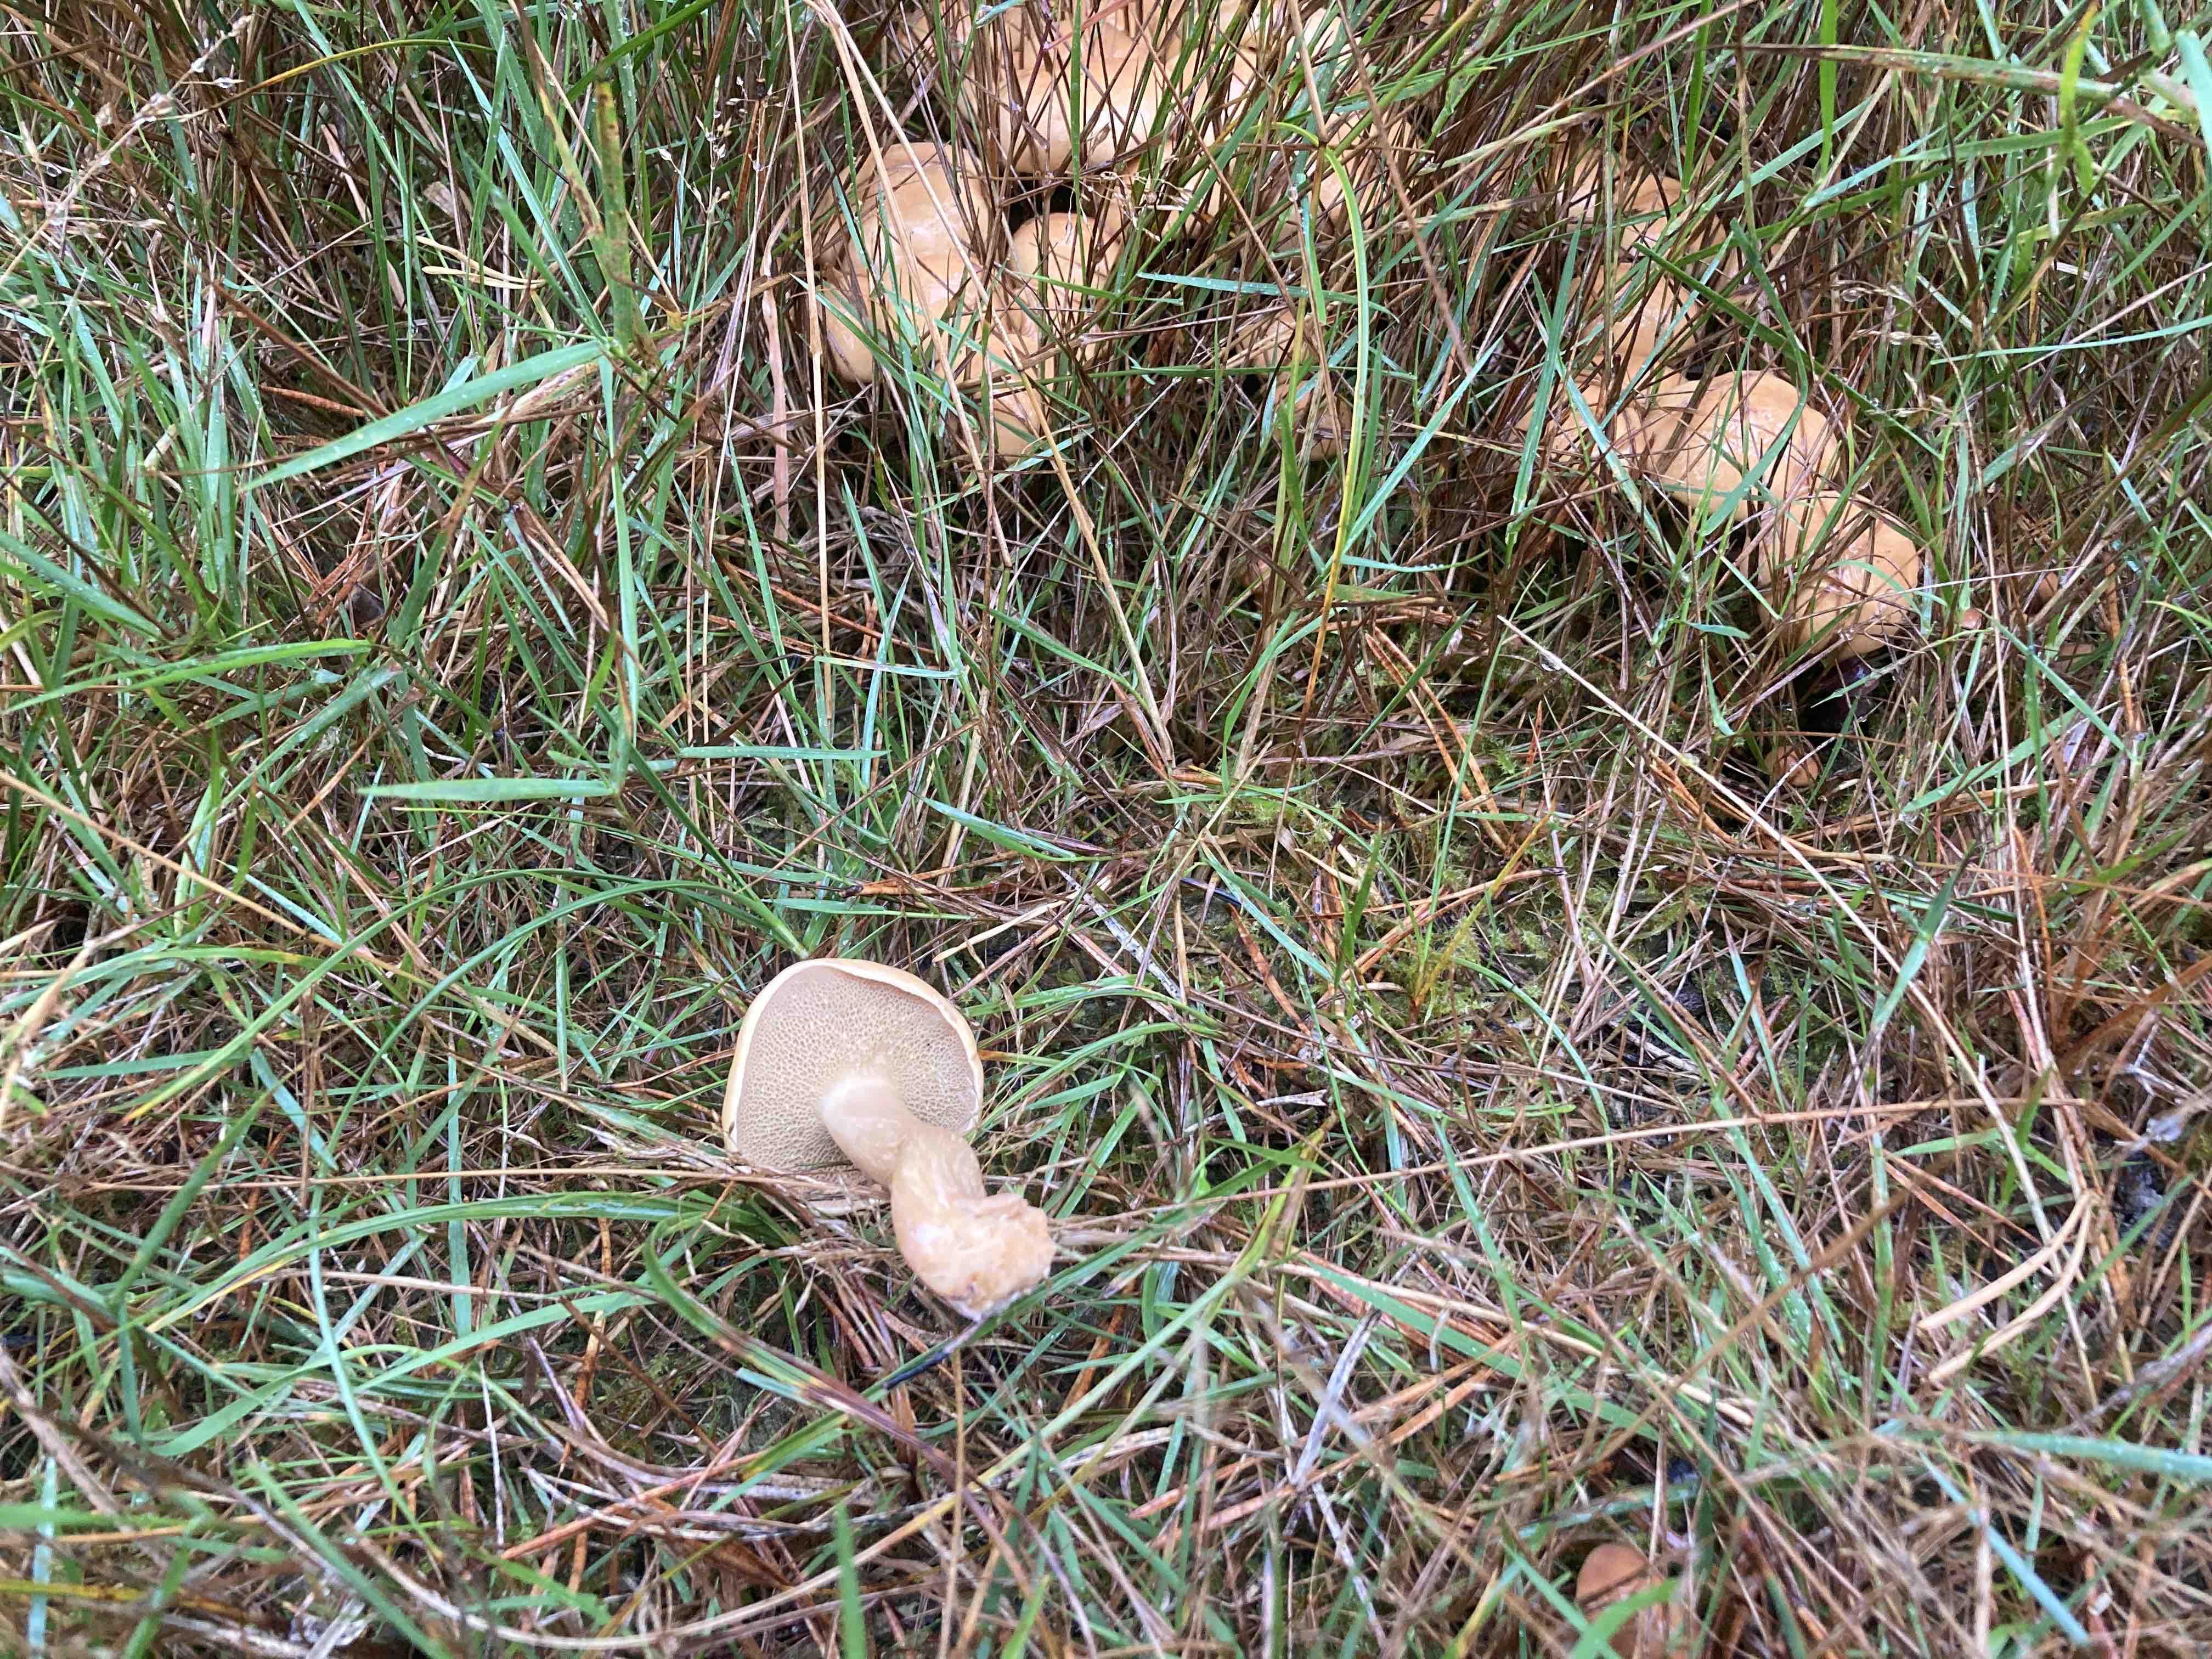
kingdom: Fungi
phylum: Basidiomycota
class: Agaricomycetes
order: Boletales
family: Suillaceae
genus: Suillus
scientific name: Suillus bovinus
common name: grovporet slimrørhat
